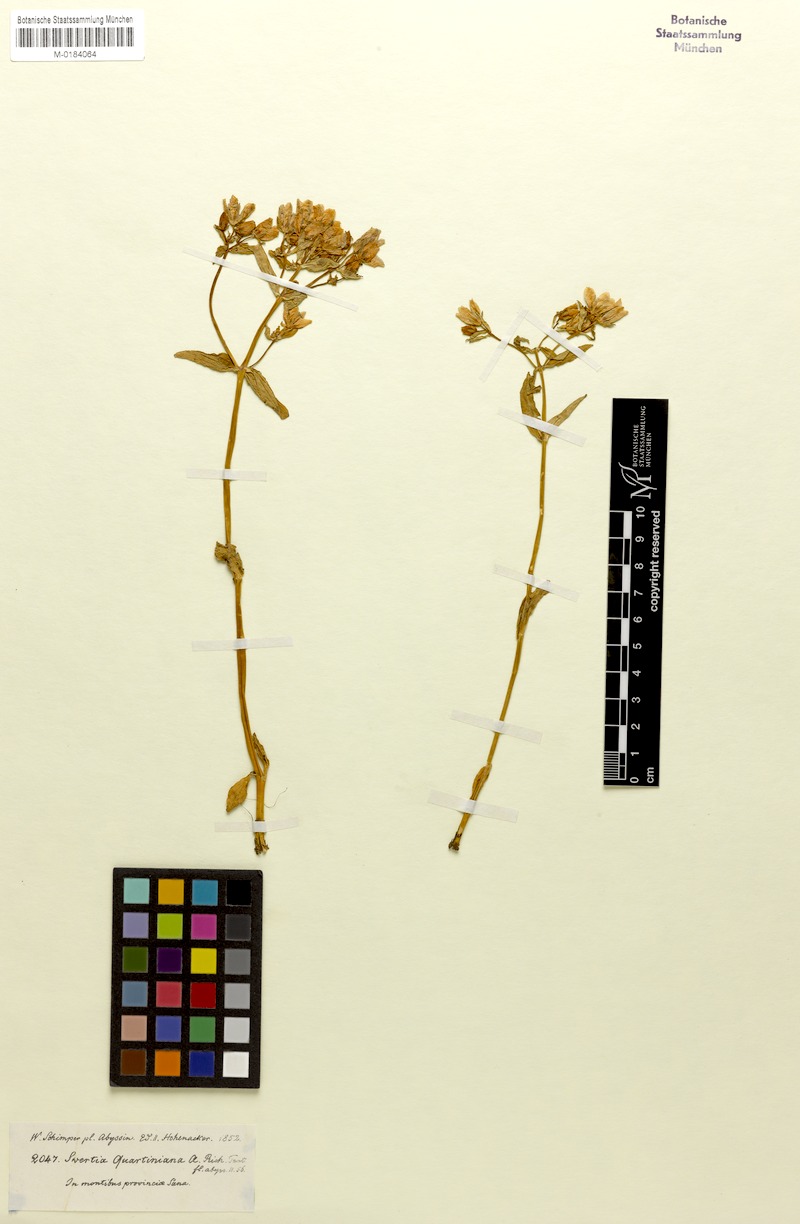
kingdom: Plantae
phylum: Tracheophyta
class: Magnoliopsida
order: Gentianales
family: Gentianaceae
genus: Swertia
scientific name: Swertia quartiniana
